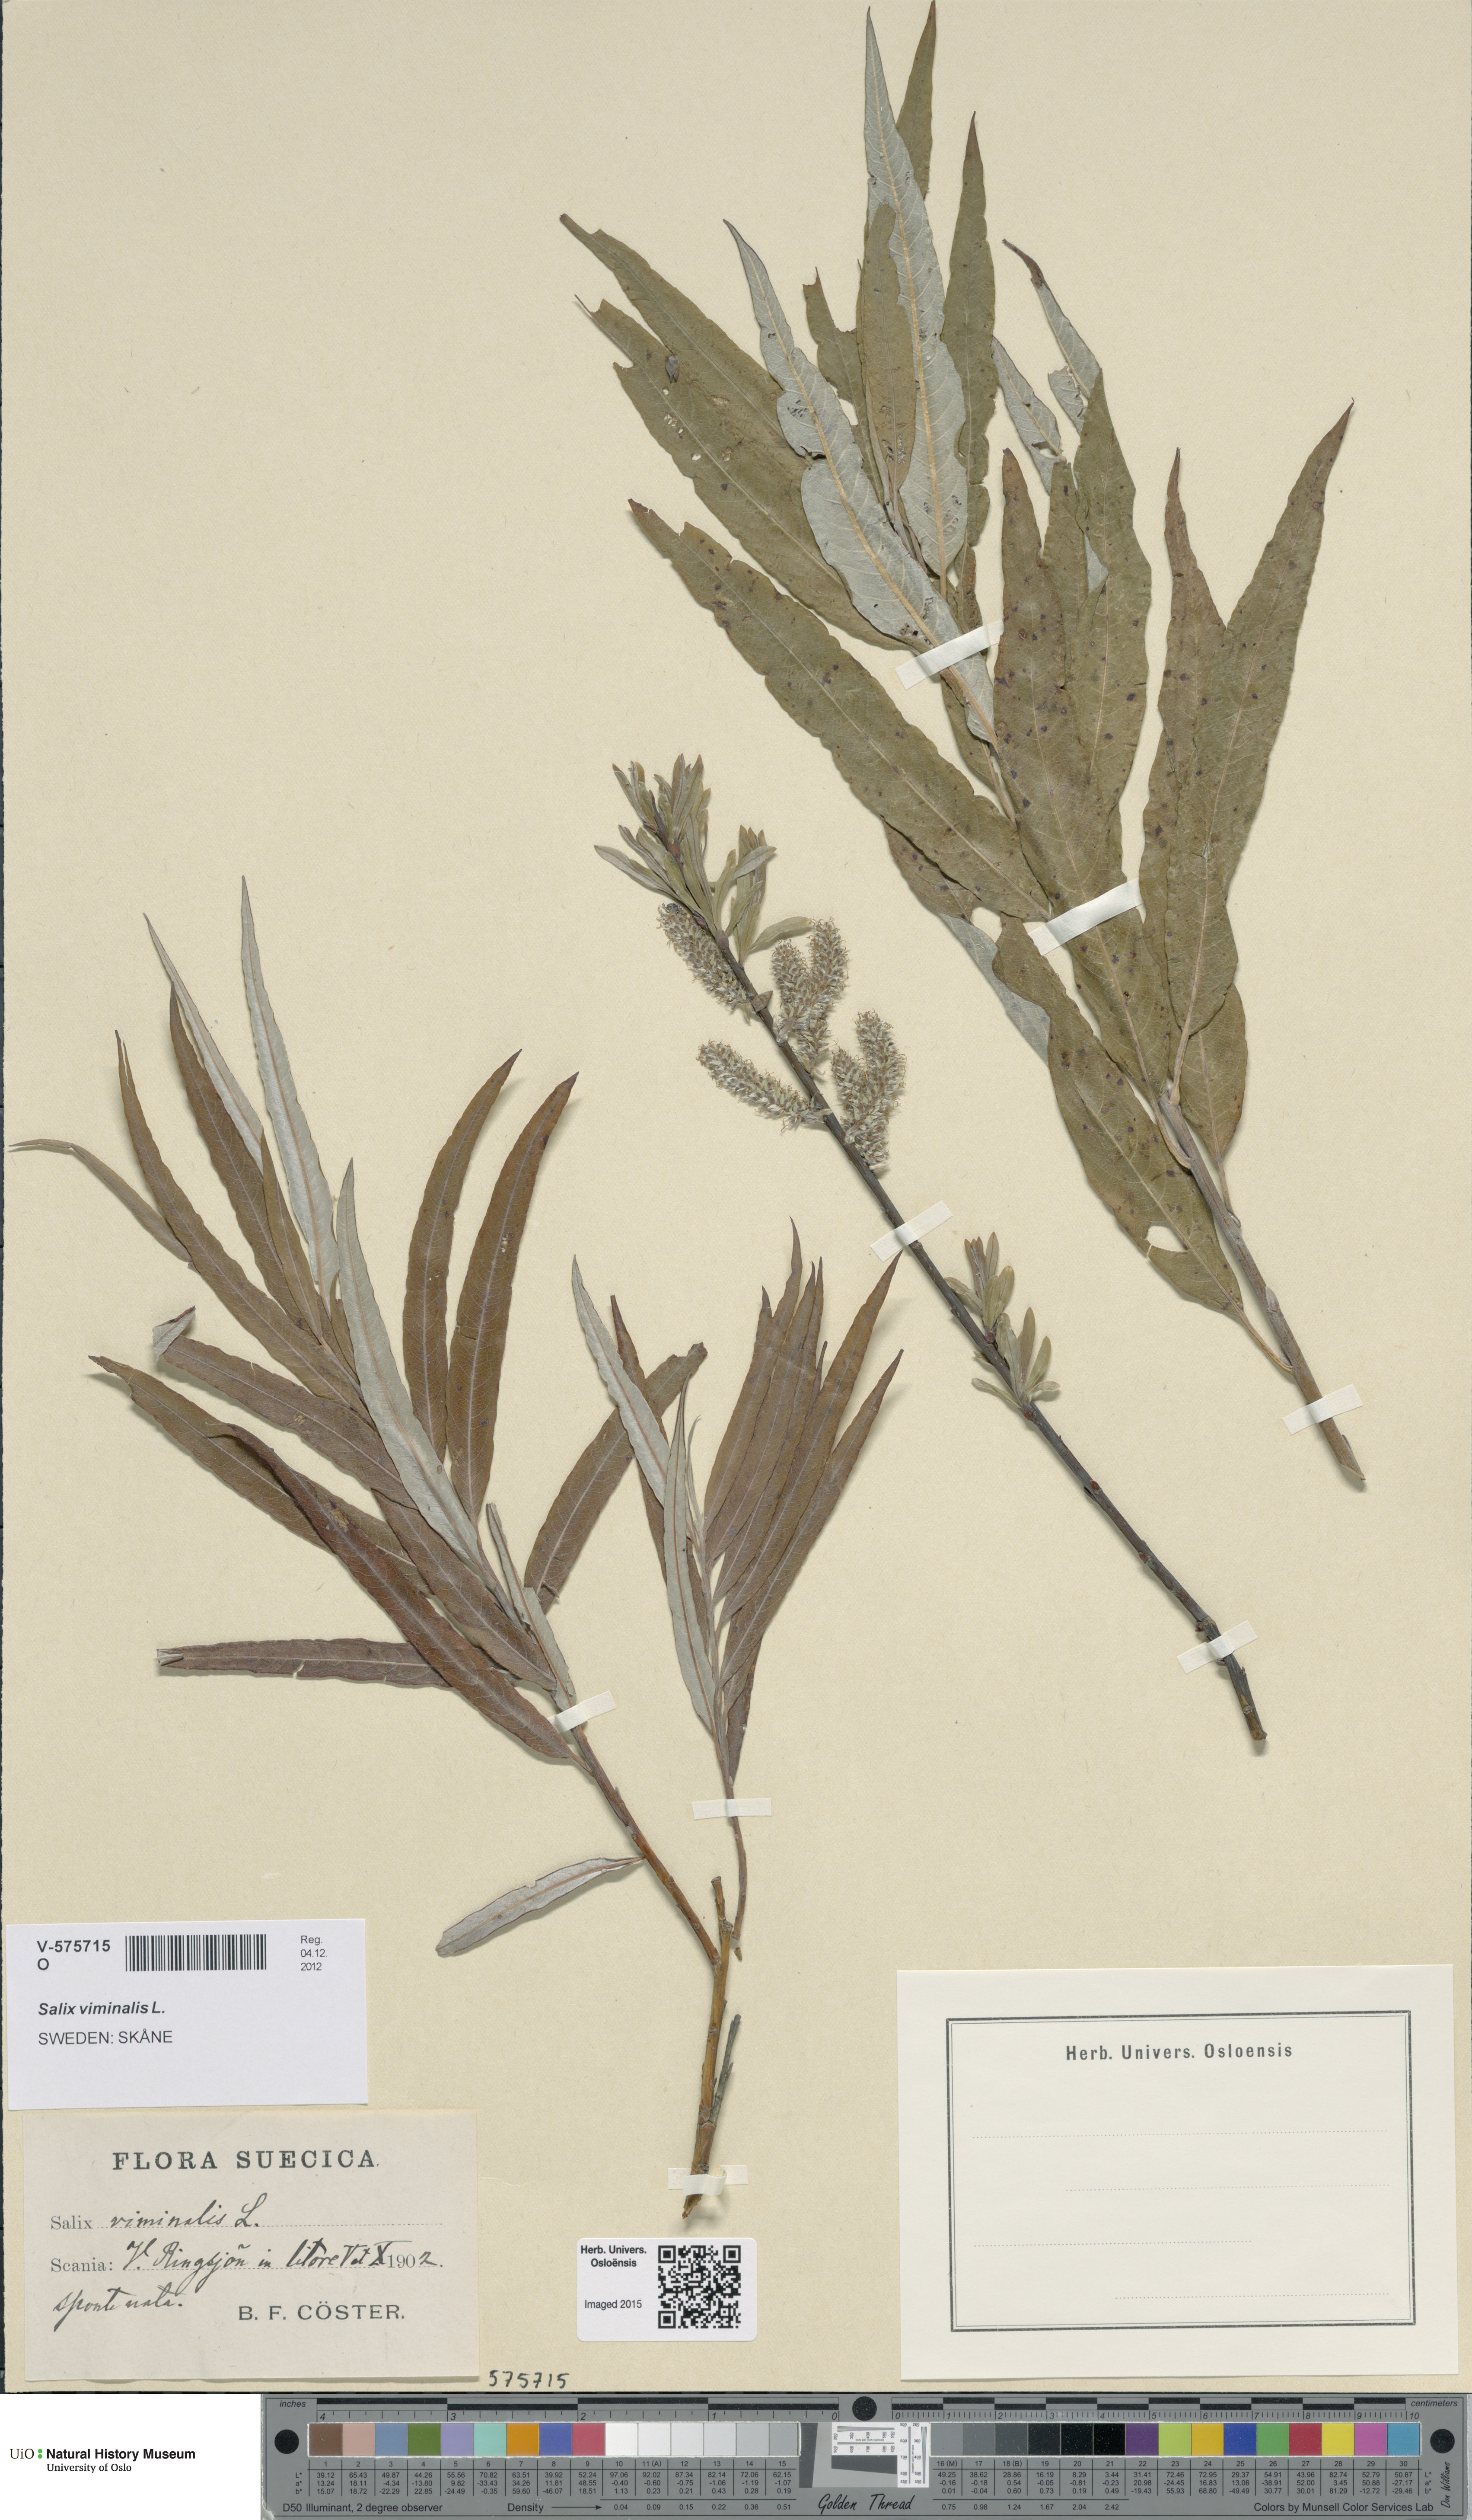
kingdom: Plantae
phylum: Tracheophyta
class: Magnoliopsida
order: Malpighiales
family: Salicaceae
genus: Salix
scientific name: Salix viminalis
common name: Osier
